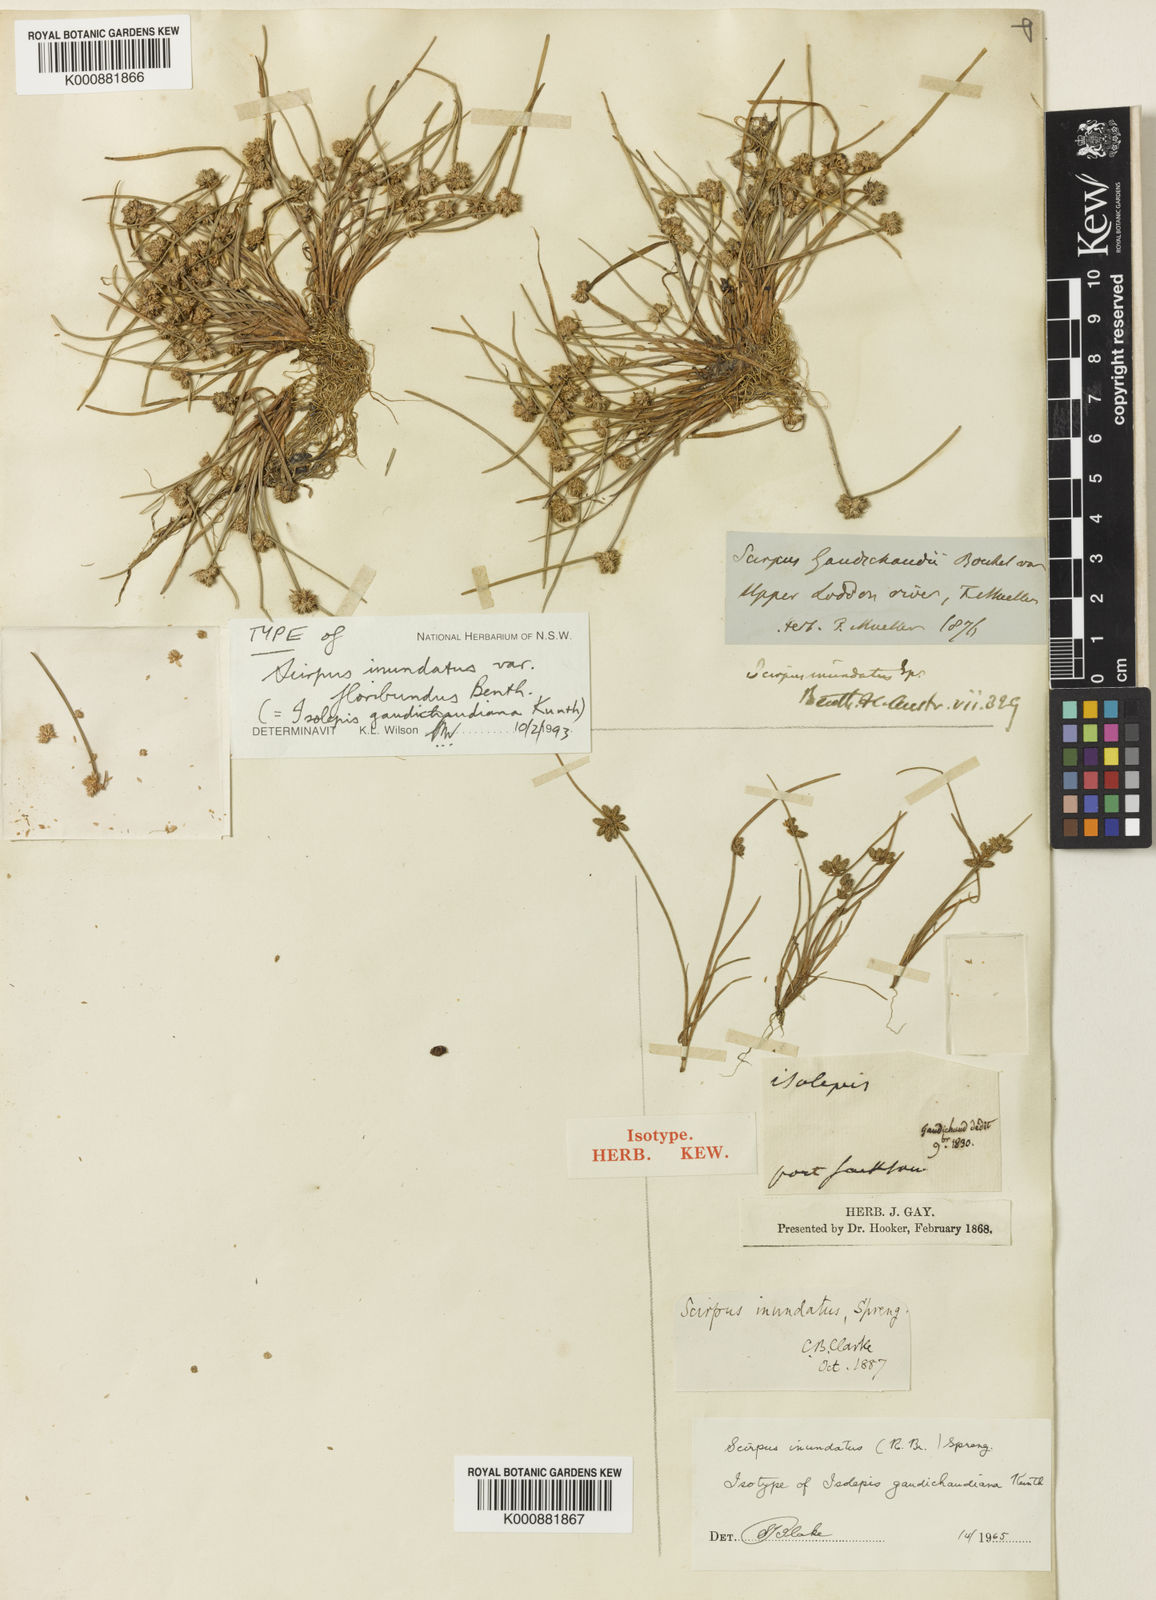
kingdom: Plantae
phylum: Tracheophyta
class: Liliopsida
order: Poales
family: Cyperaceae
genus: Isolepis
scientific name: Isolepis gaudichaudiana
